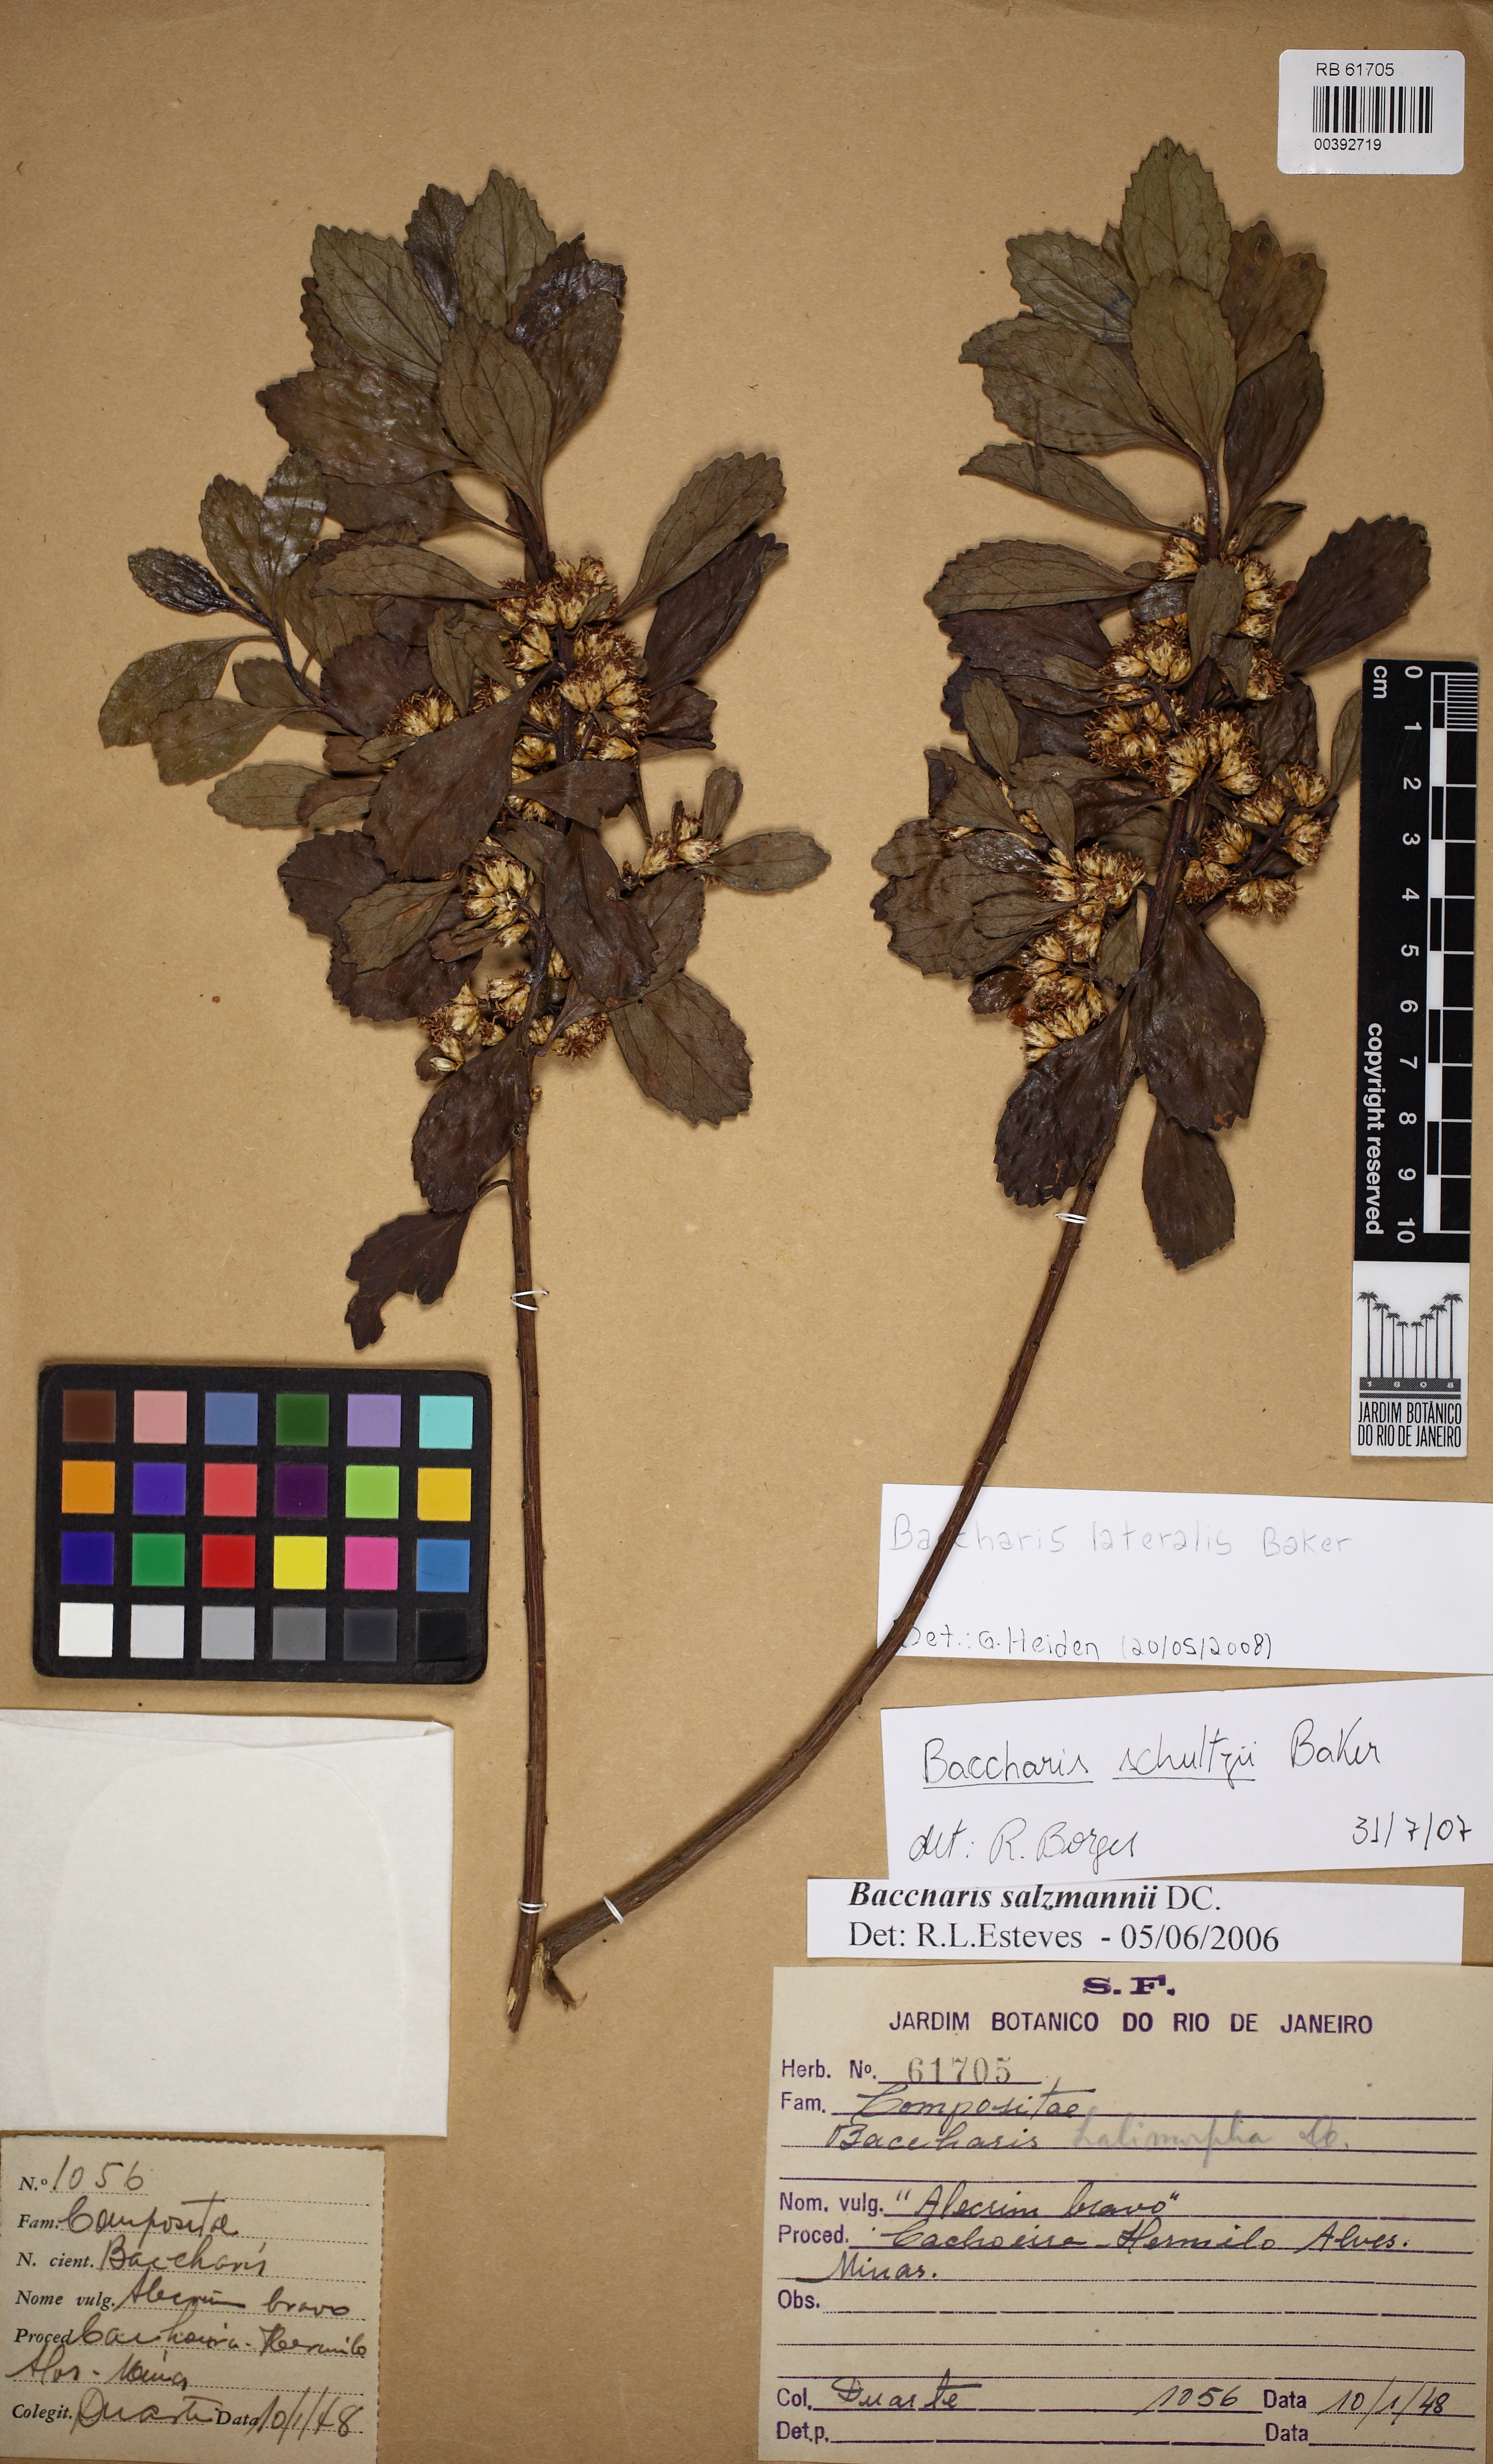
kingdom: Plantae
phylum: Tracheophyta
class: Magnoliopsida
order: Asterales
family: Asteraceae
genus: Baccharis
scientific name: Baccharis lateralis
